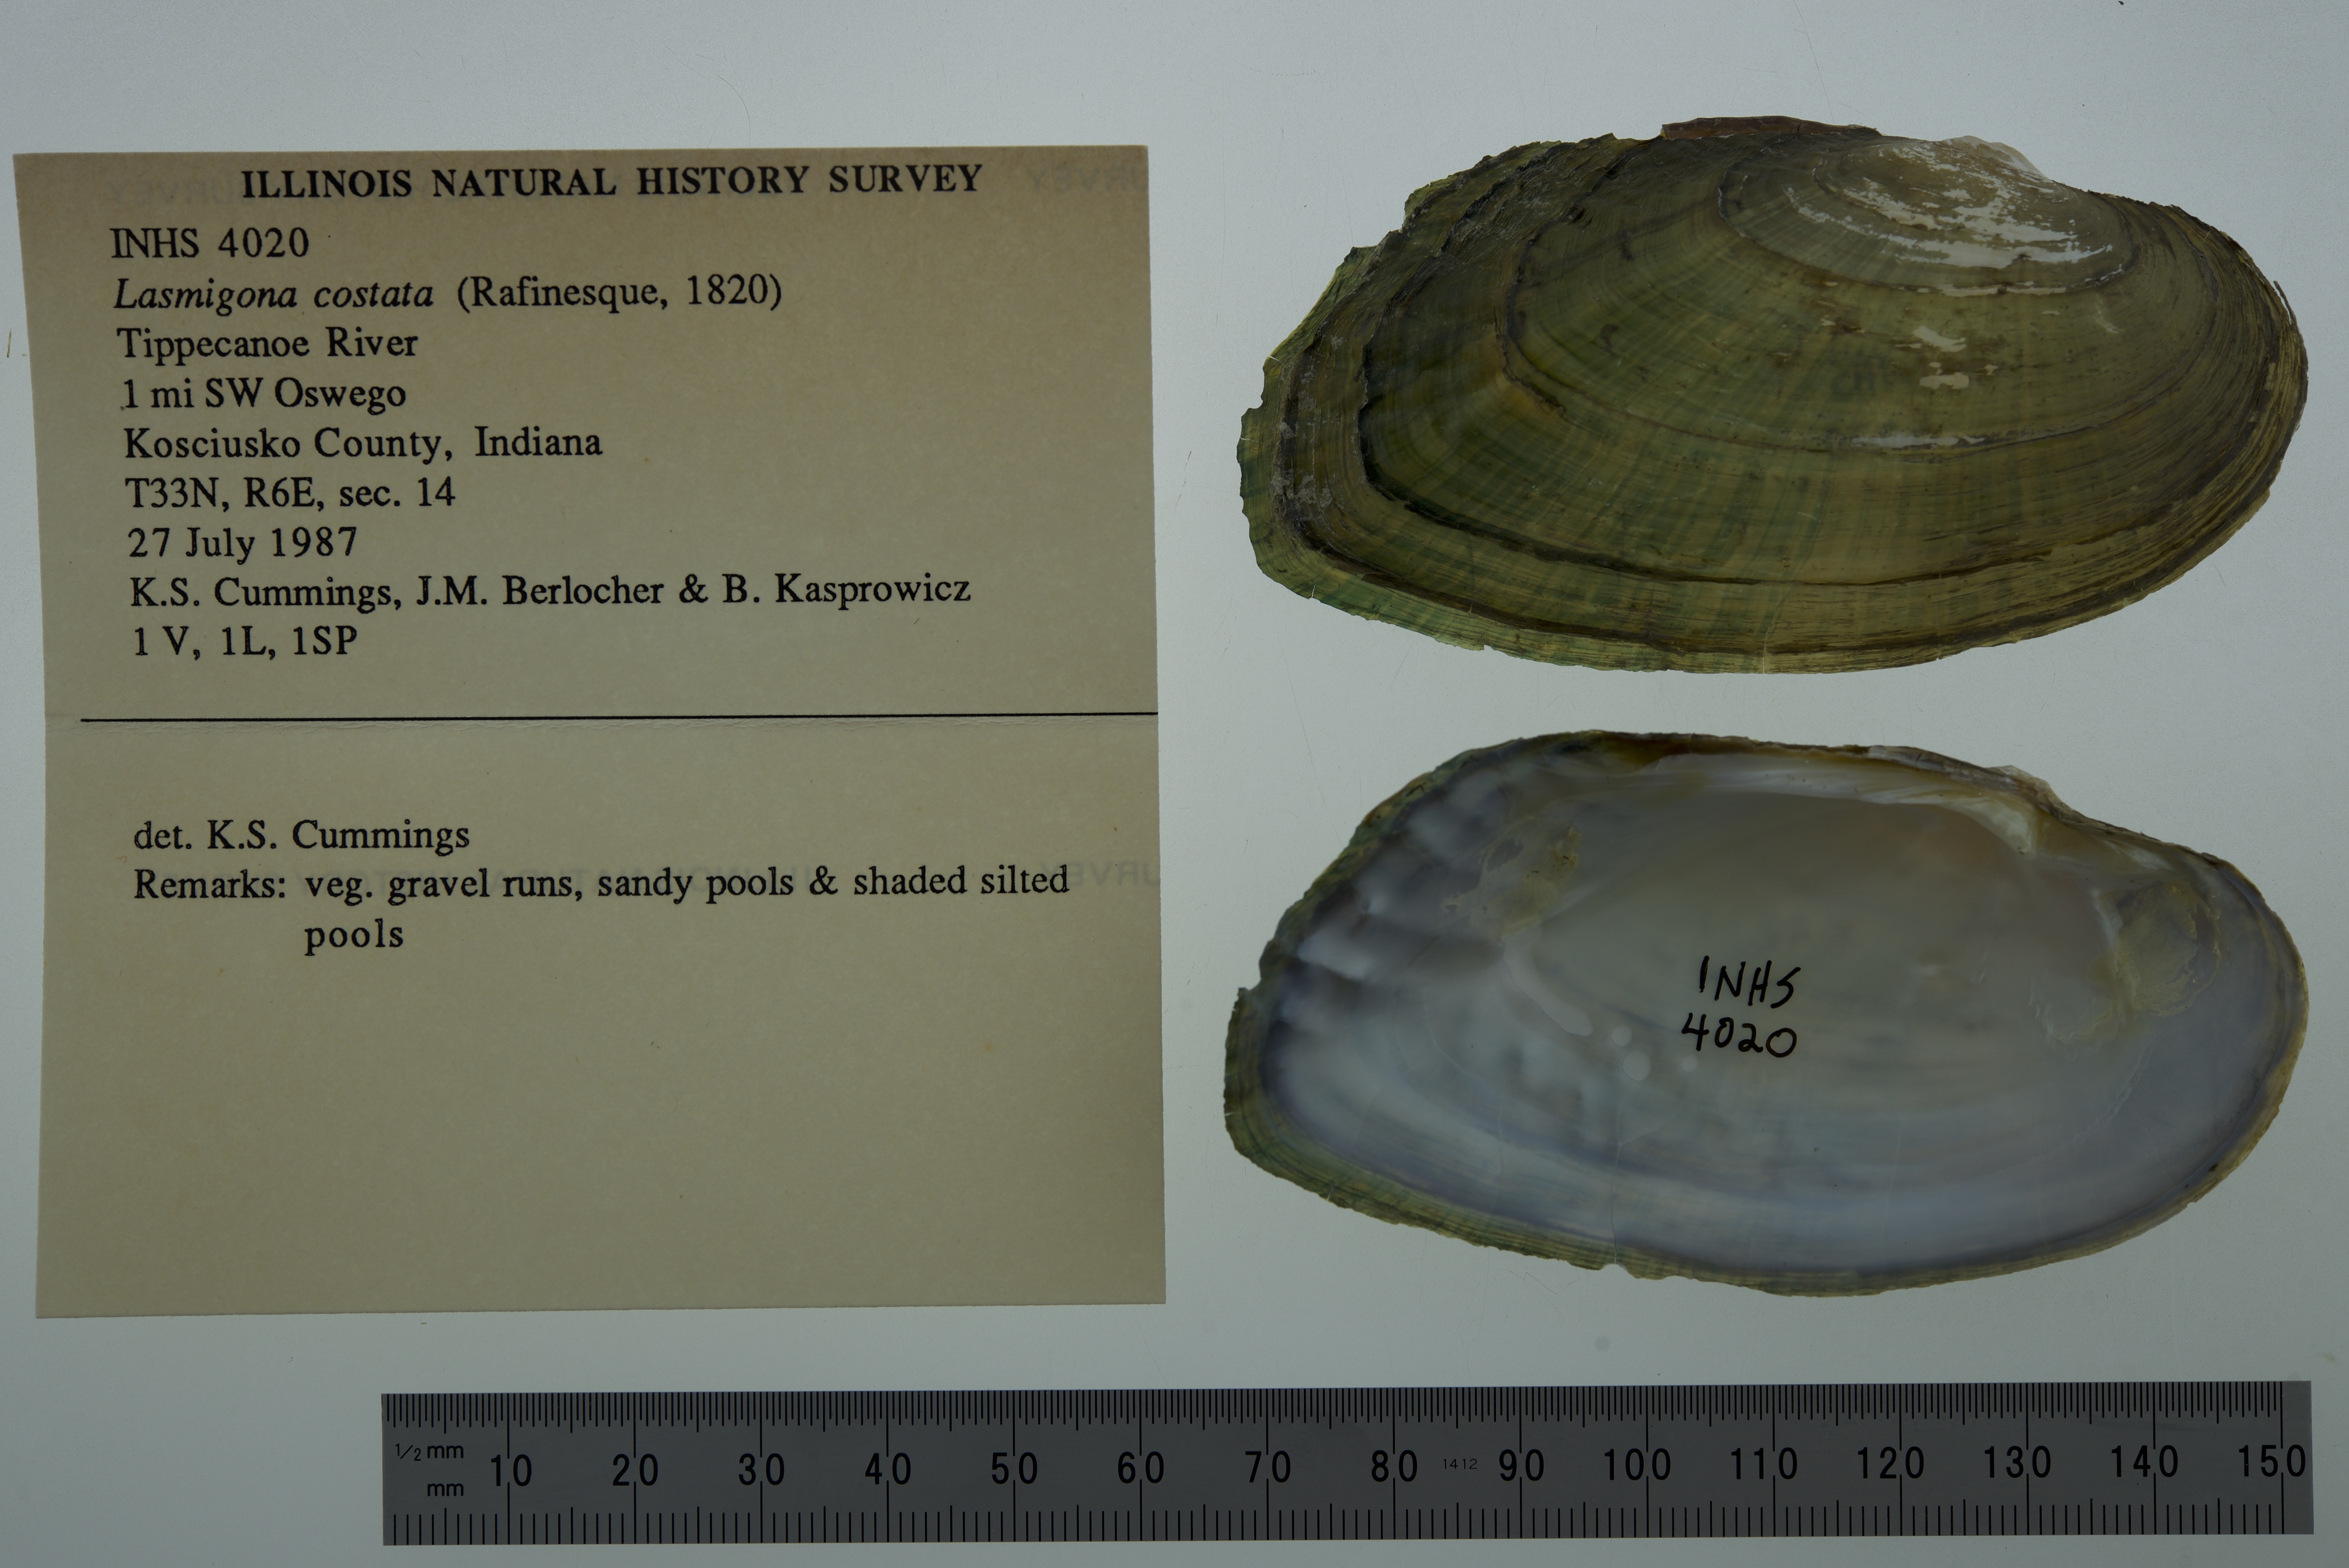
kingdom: Animalia
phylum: Mollusca
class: Bivalvia
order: Unionida
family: Unionidae
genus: Lasmigona
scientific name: Lasmigona costata
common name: Flutedshell
